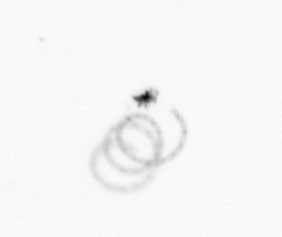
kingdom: Chromista
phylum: Ochrophyta
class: Bacillariophyceae
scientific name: Bacillariophyceae
